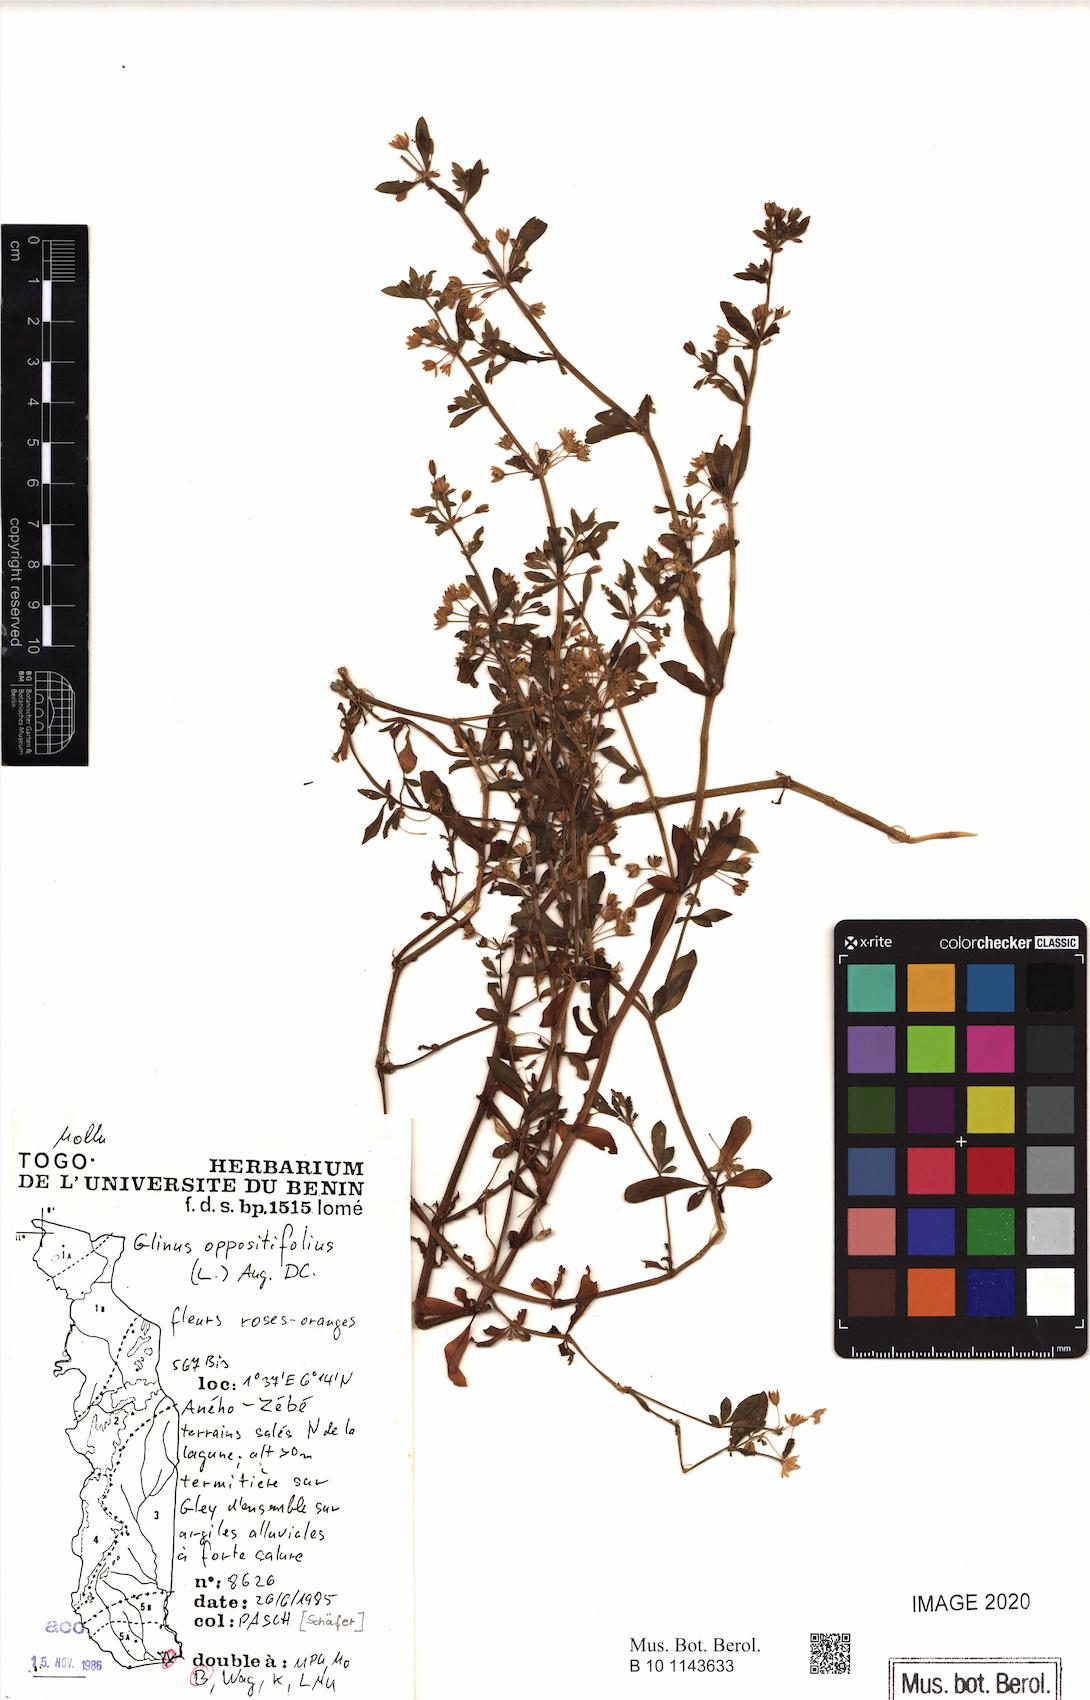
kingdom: Plantae
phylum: Tracheophyta
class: Magnoliopsida
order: Caryophyllales
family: Molluginaceae
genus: Glinus
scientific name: Glinus oppositifolius
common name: Slender carpetweed
